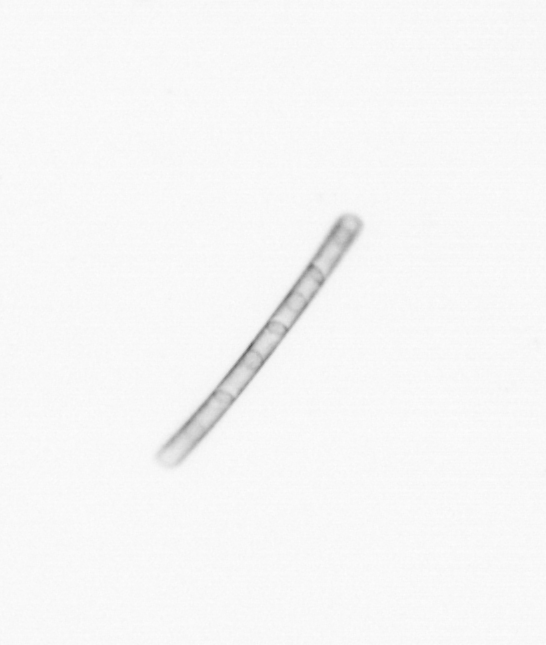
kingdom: Chromista
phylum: Ochrophyta
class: Bacillariophyceae
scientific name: Bacillariophyceae
